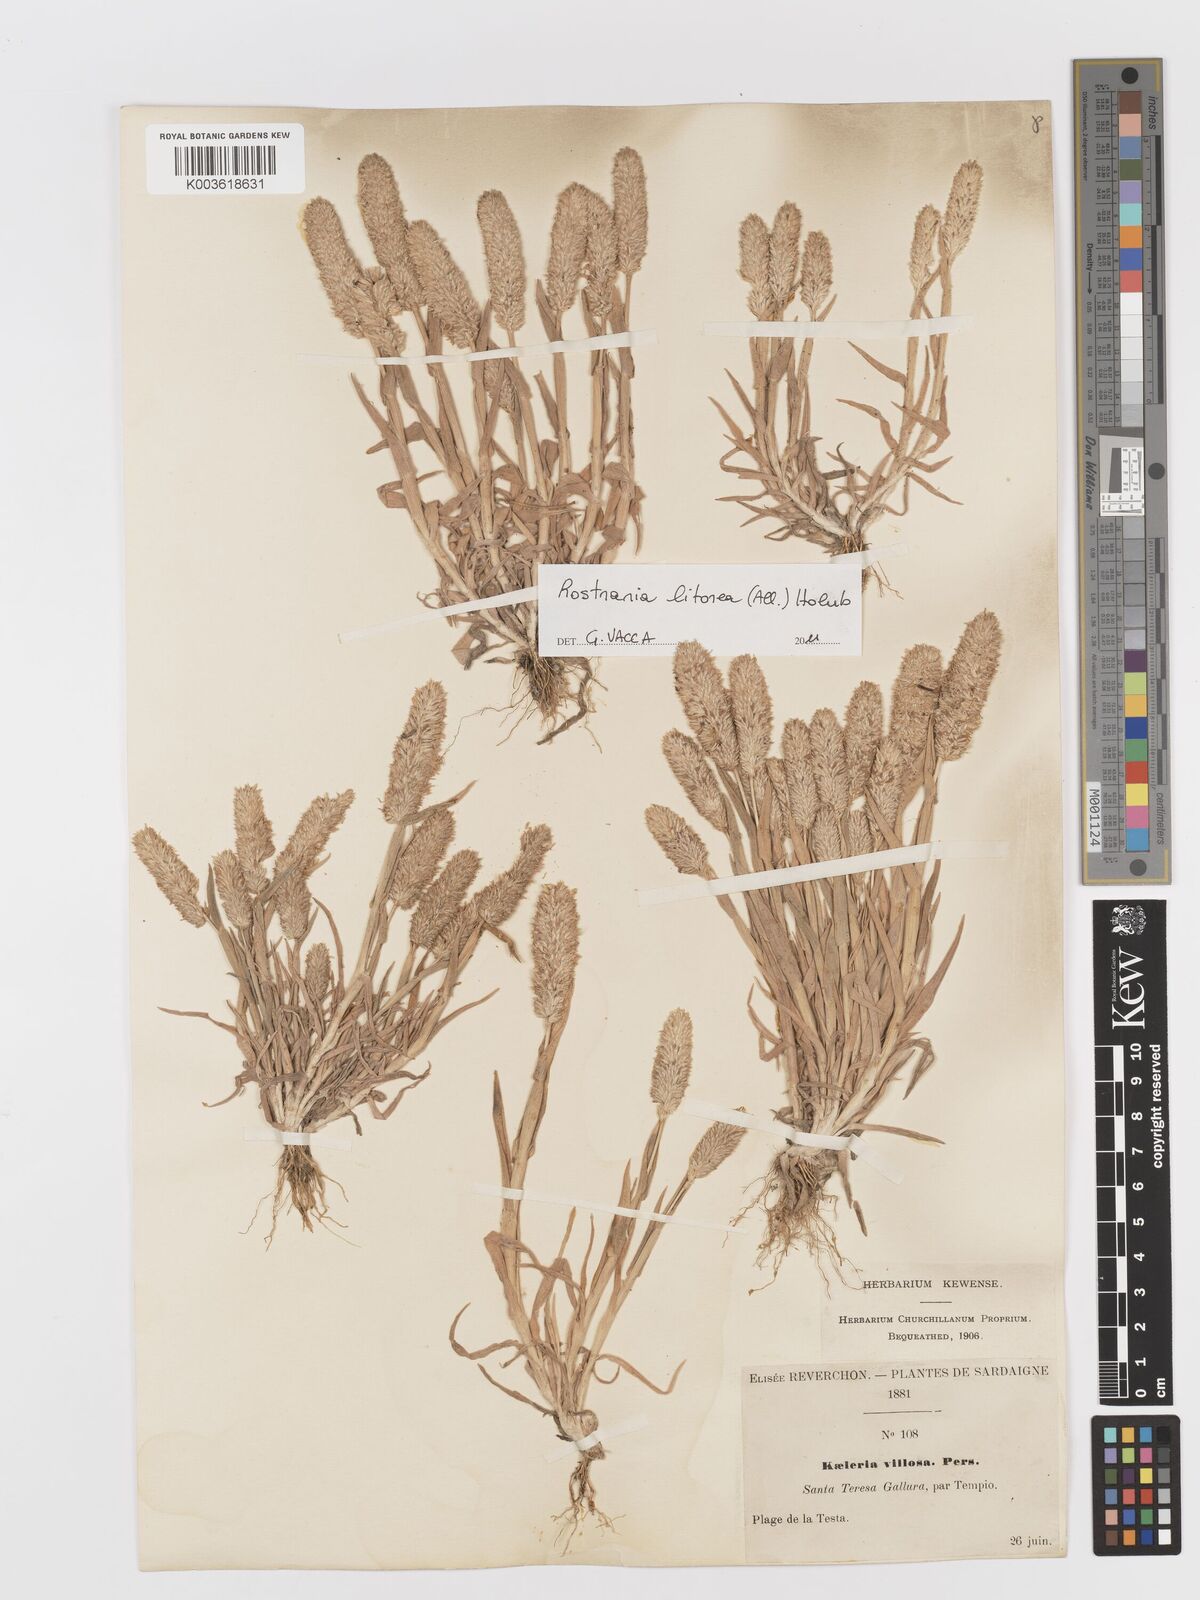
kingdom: Plantae
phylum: Tracheophyta
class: Liliopsida
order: Poales
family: Poaceae
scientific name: Poaceae
